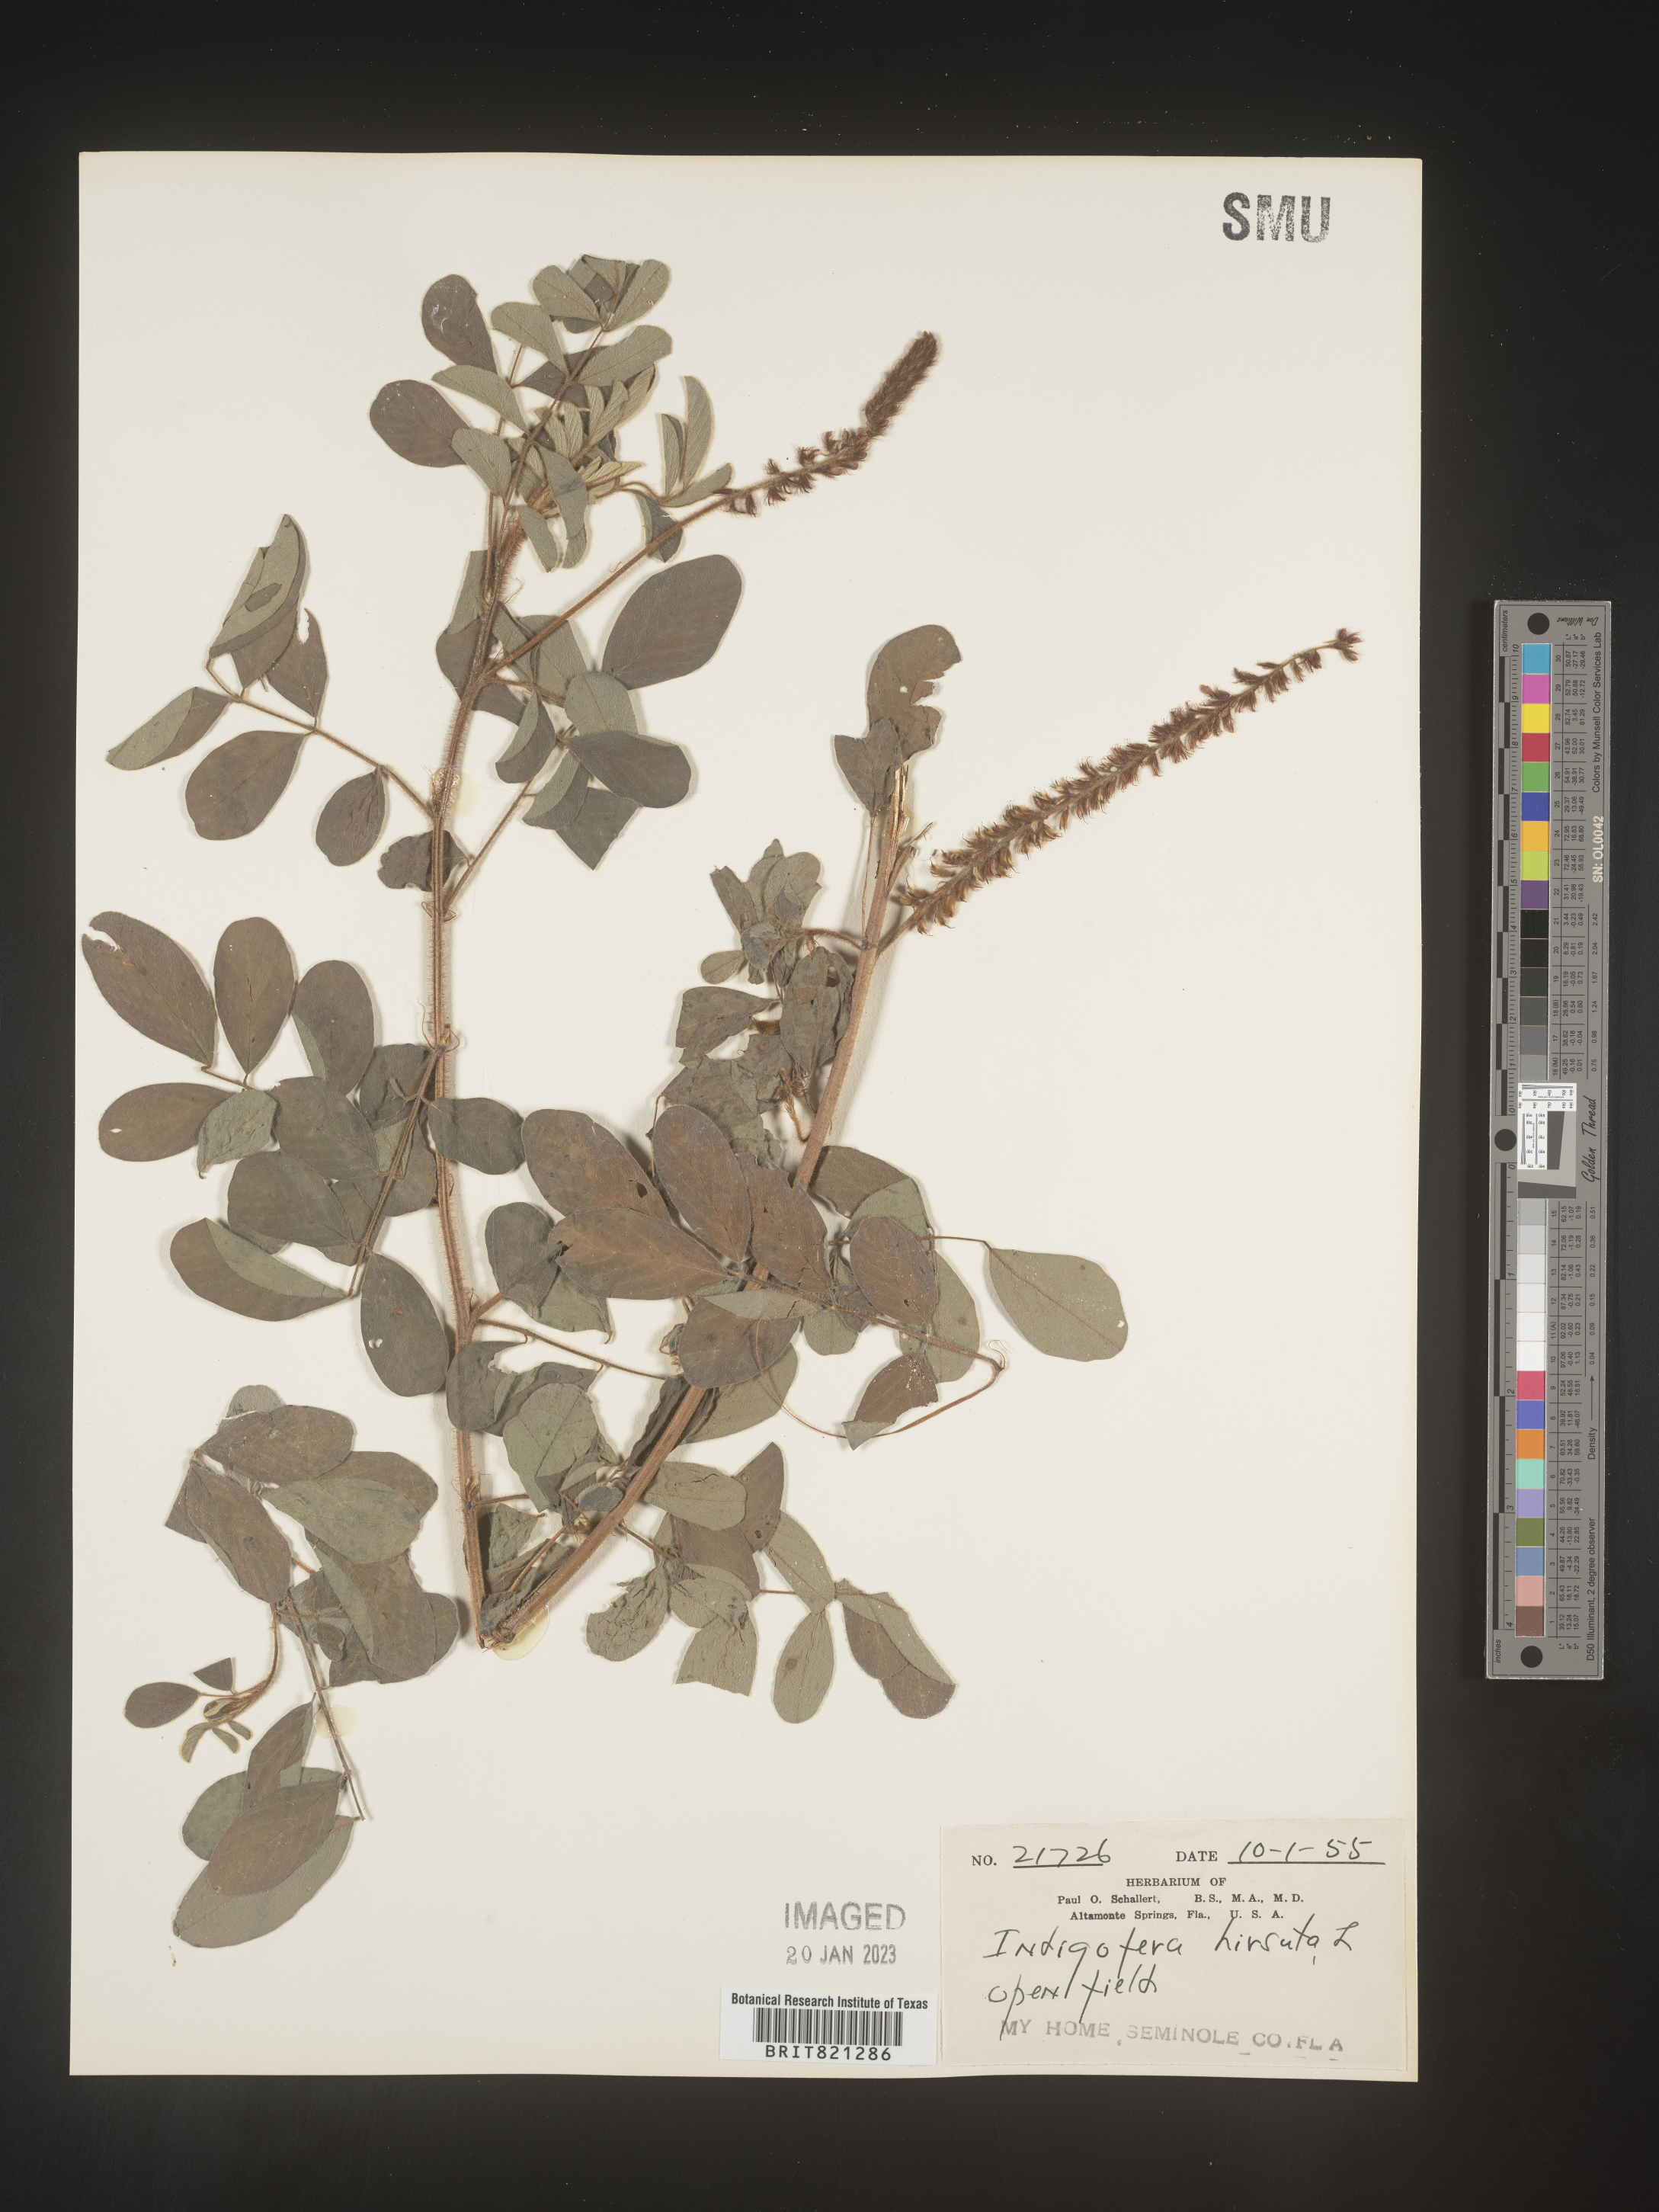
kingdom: Plantae
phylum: Tracheophyta
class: Magnoliopsida
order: Fabales
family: Fabaceae
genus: Indigofera
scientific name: Indigofera
